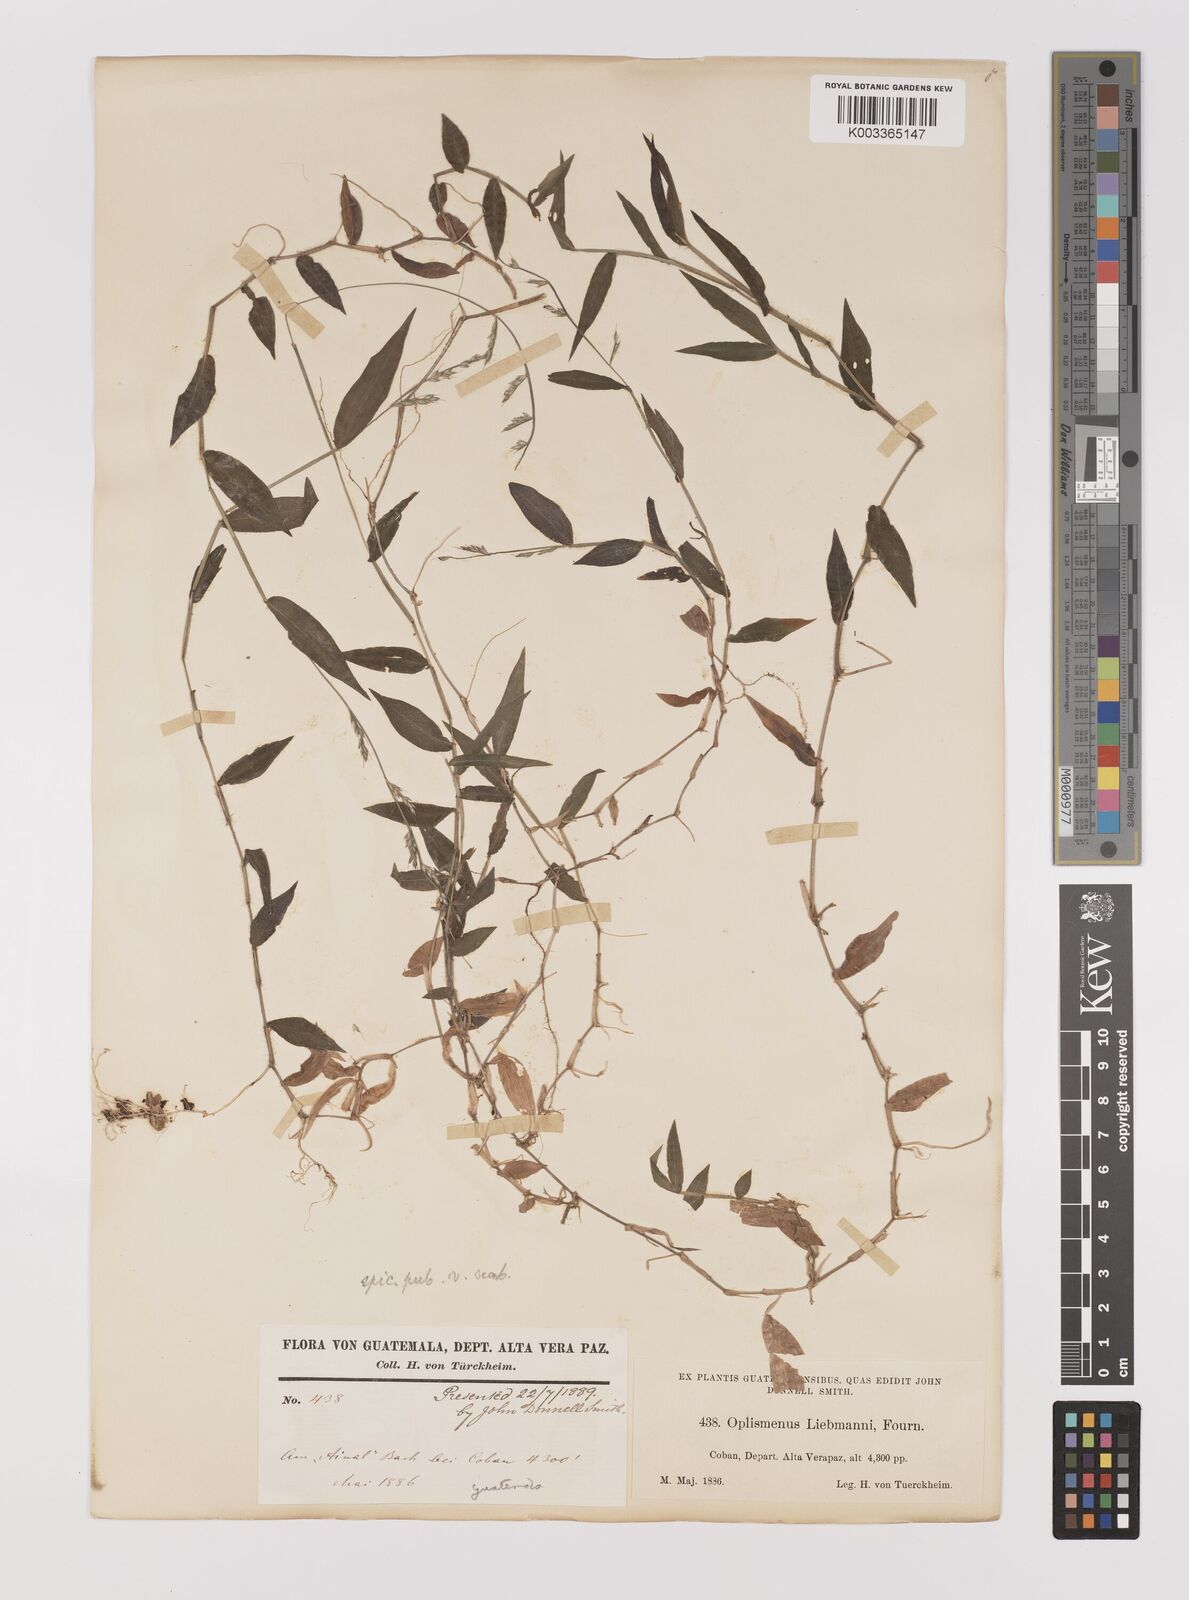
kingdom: Plantae
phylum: Tracheophyta
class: Liliopsida
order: Poales
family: Poaceae
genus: Oplismenus
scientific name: Oplismenus hirtellus
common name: Basketgrass
